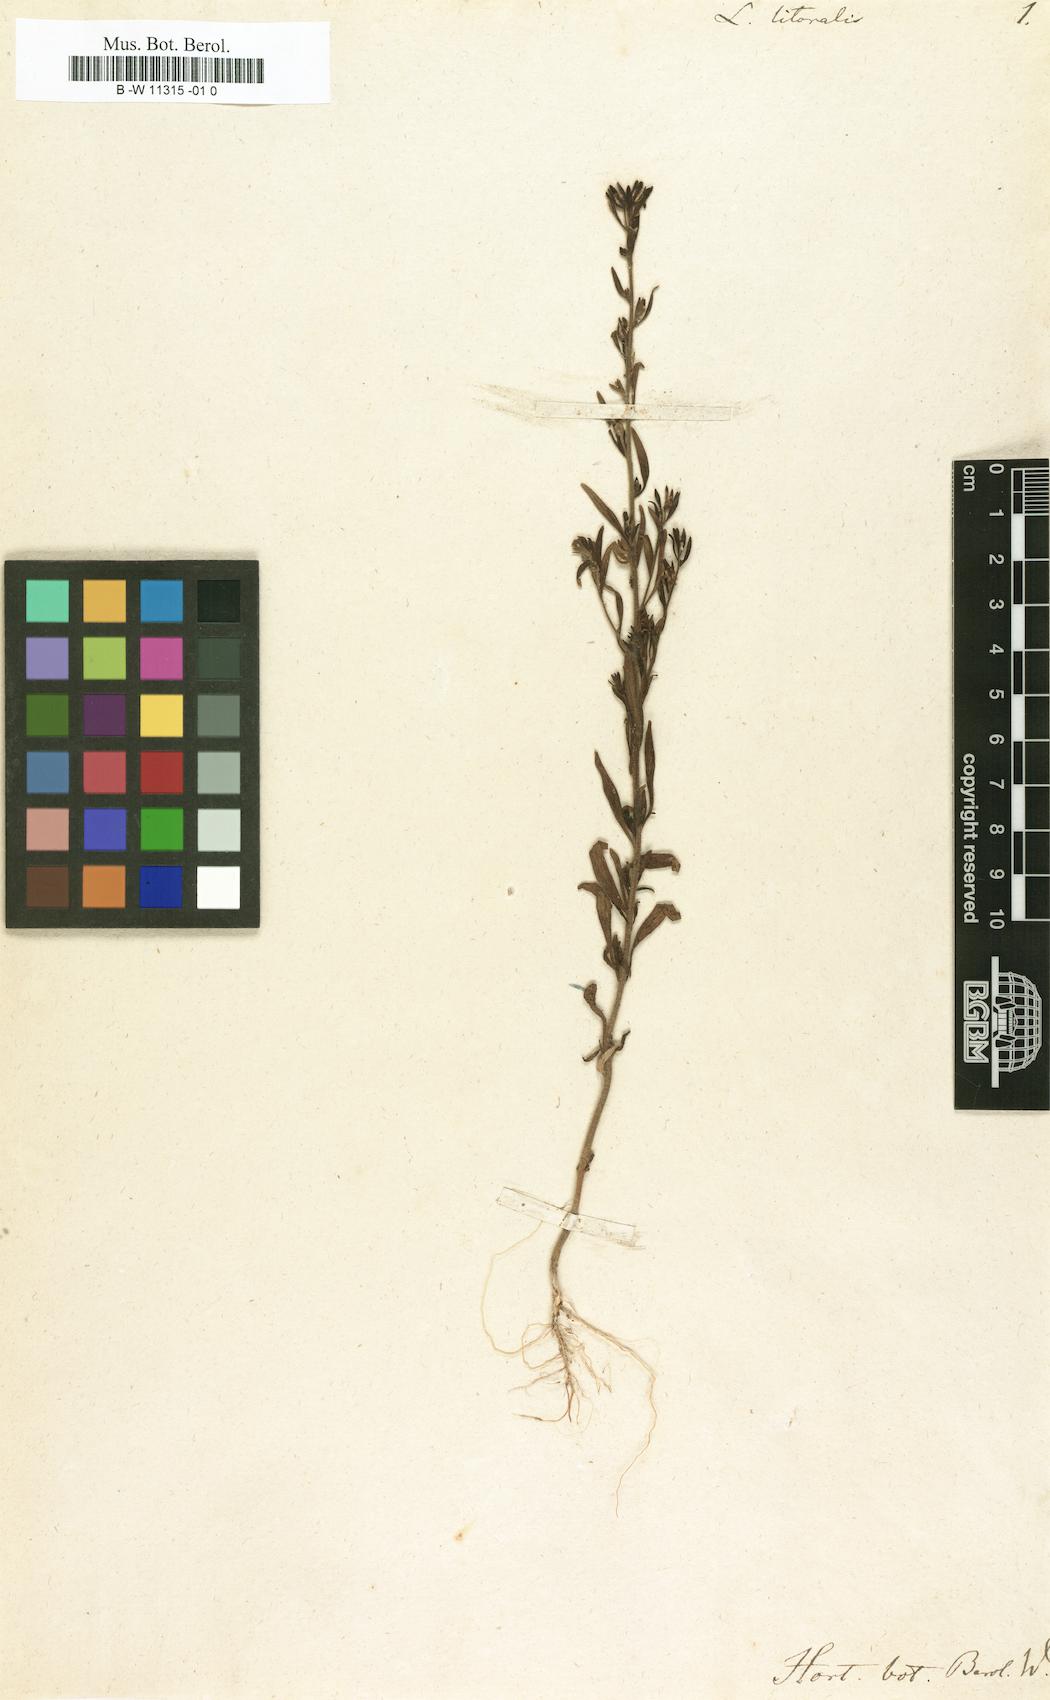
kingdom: Plantae
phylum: Tracheophyta
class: Magnoliopsida
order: Lamiales
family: Plantaginaceae
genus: Chaenorhinum
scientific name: Chaenorhinum litorale
